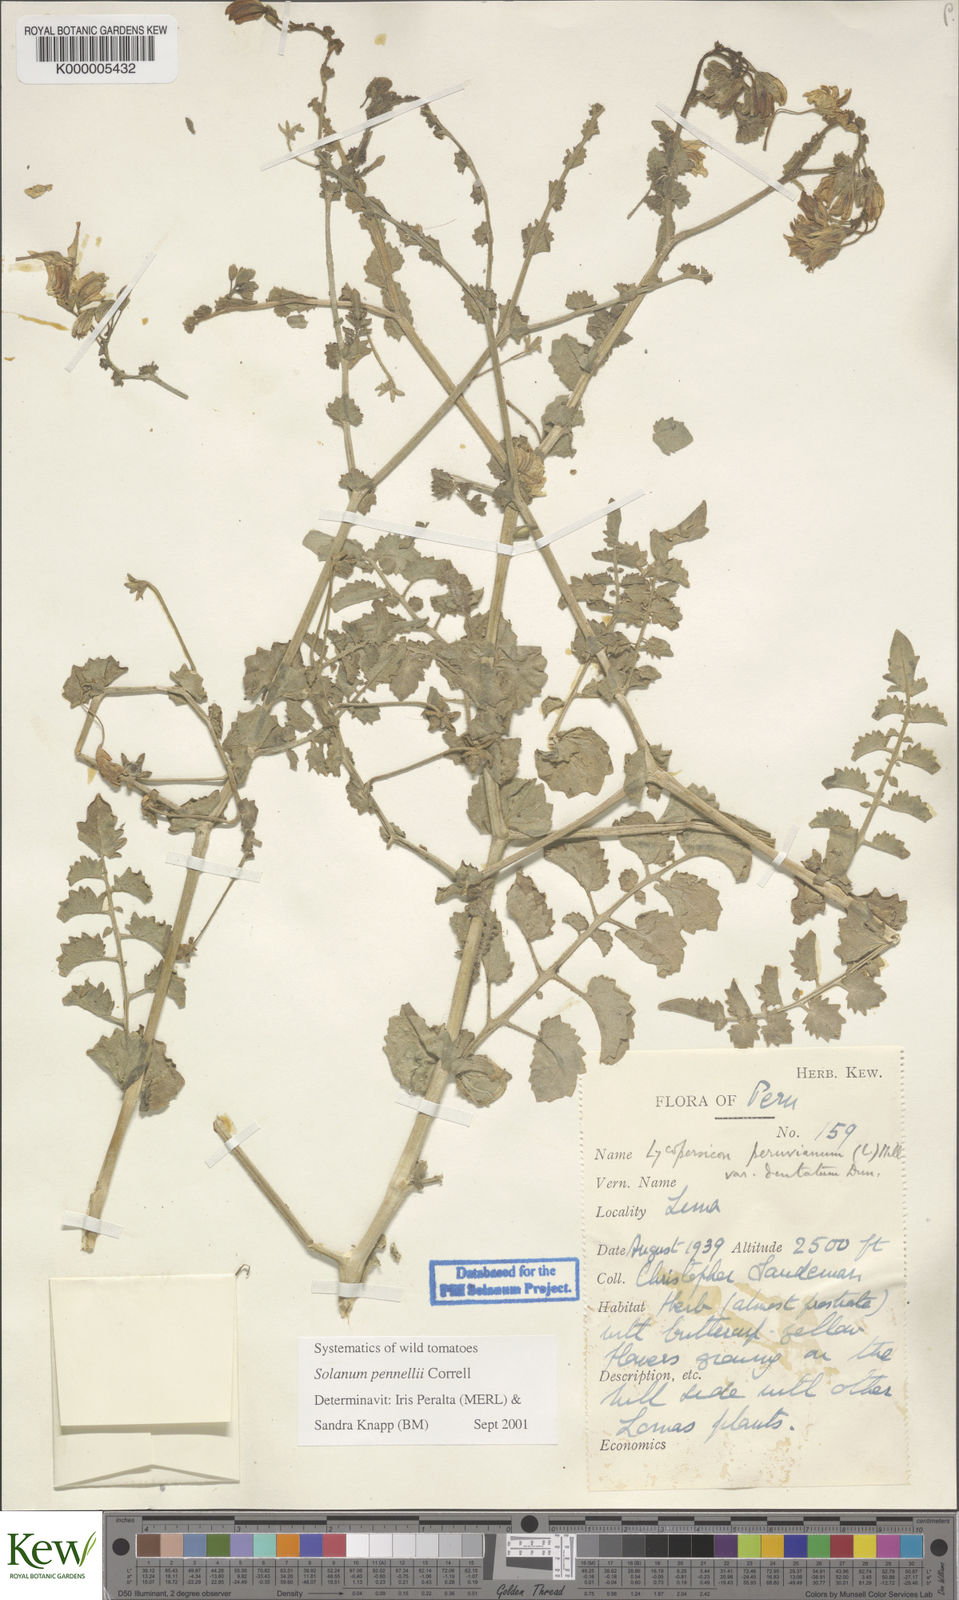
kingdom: Plantae
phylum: Tracheophyta
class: Magnoliopsida
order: Solanales
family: Solanaceae
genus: Solanum
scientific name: Solanum pennellii
